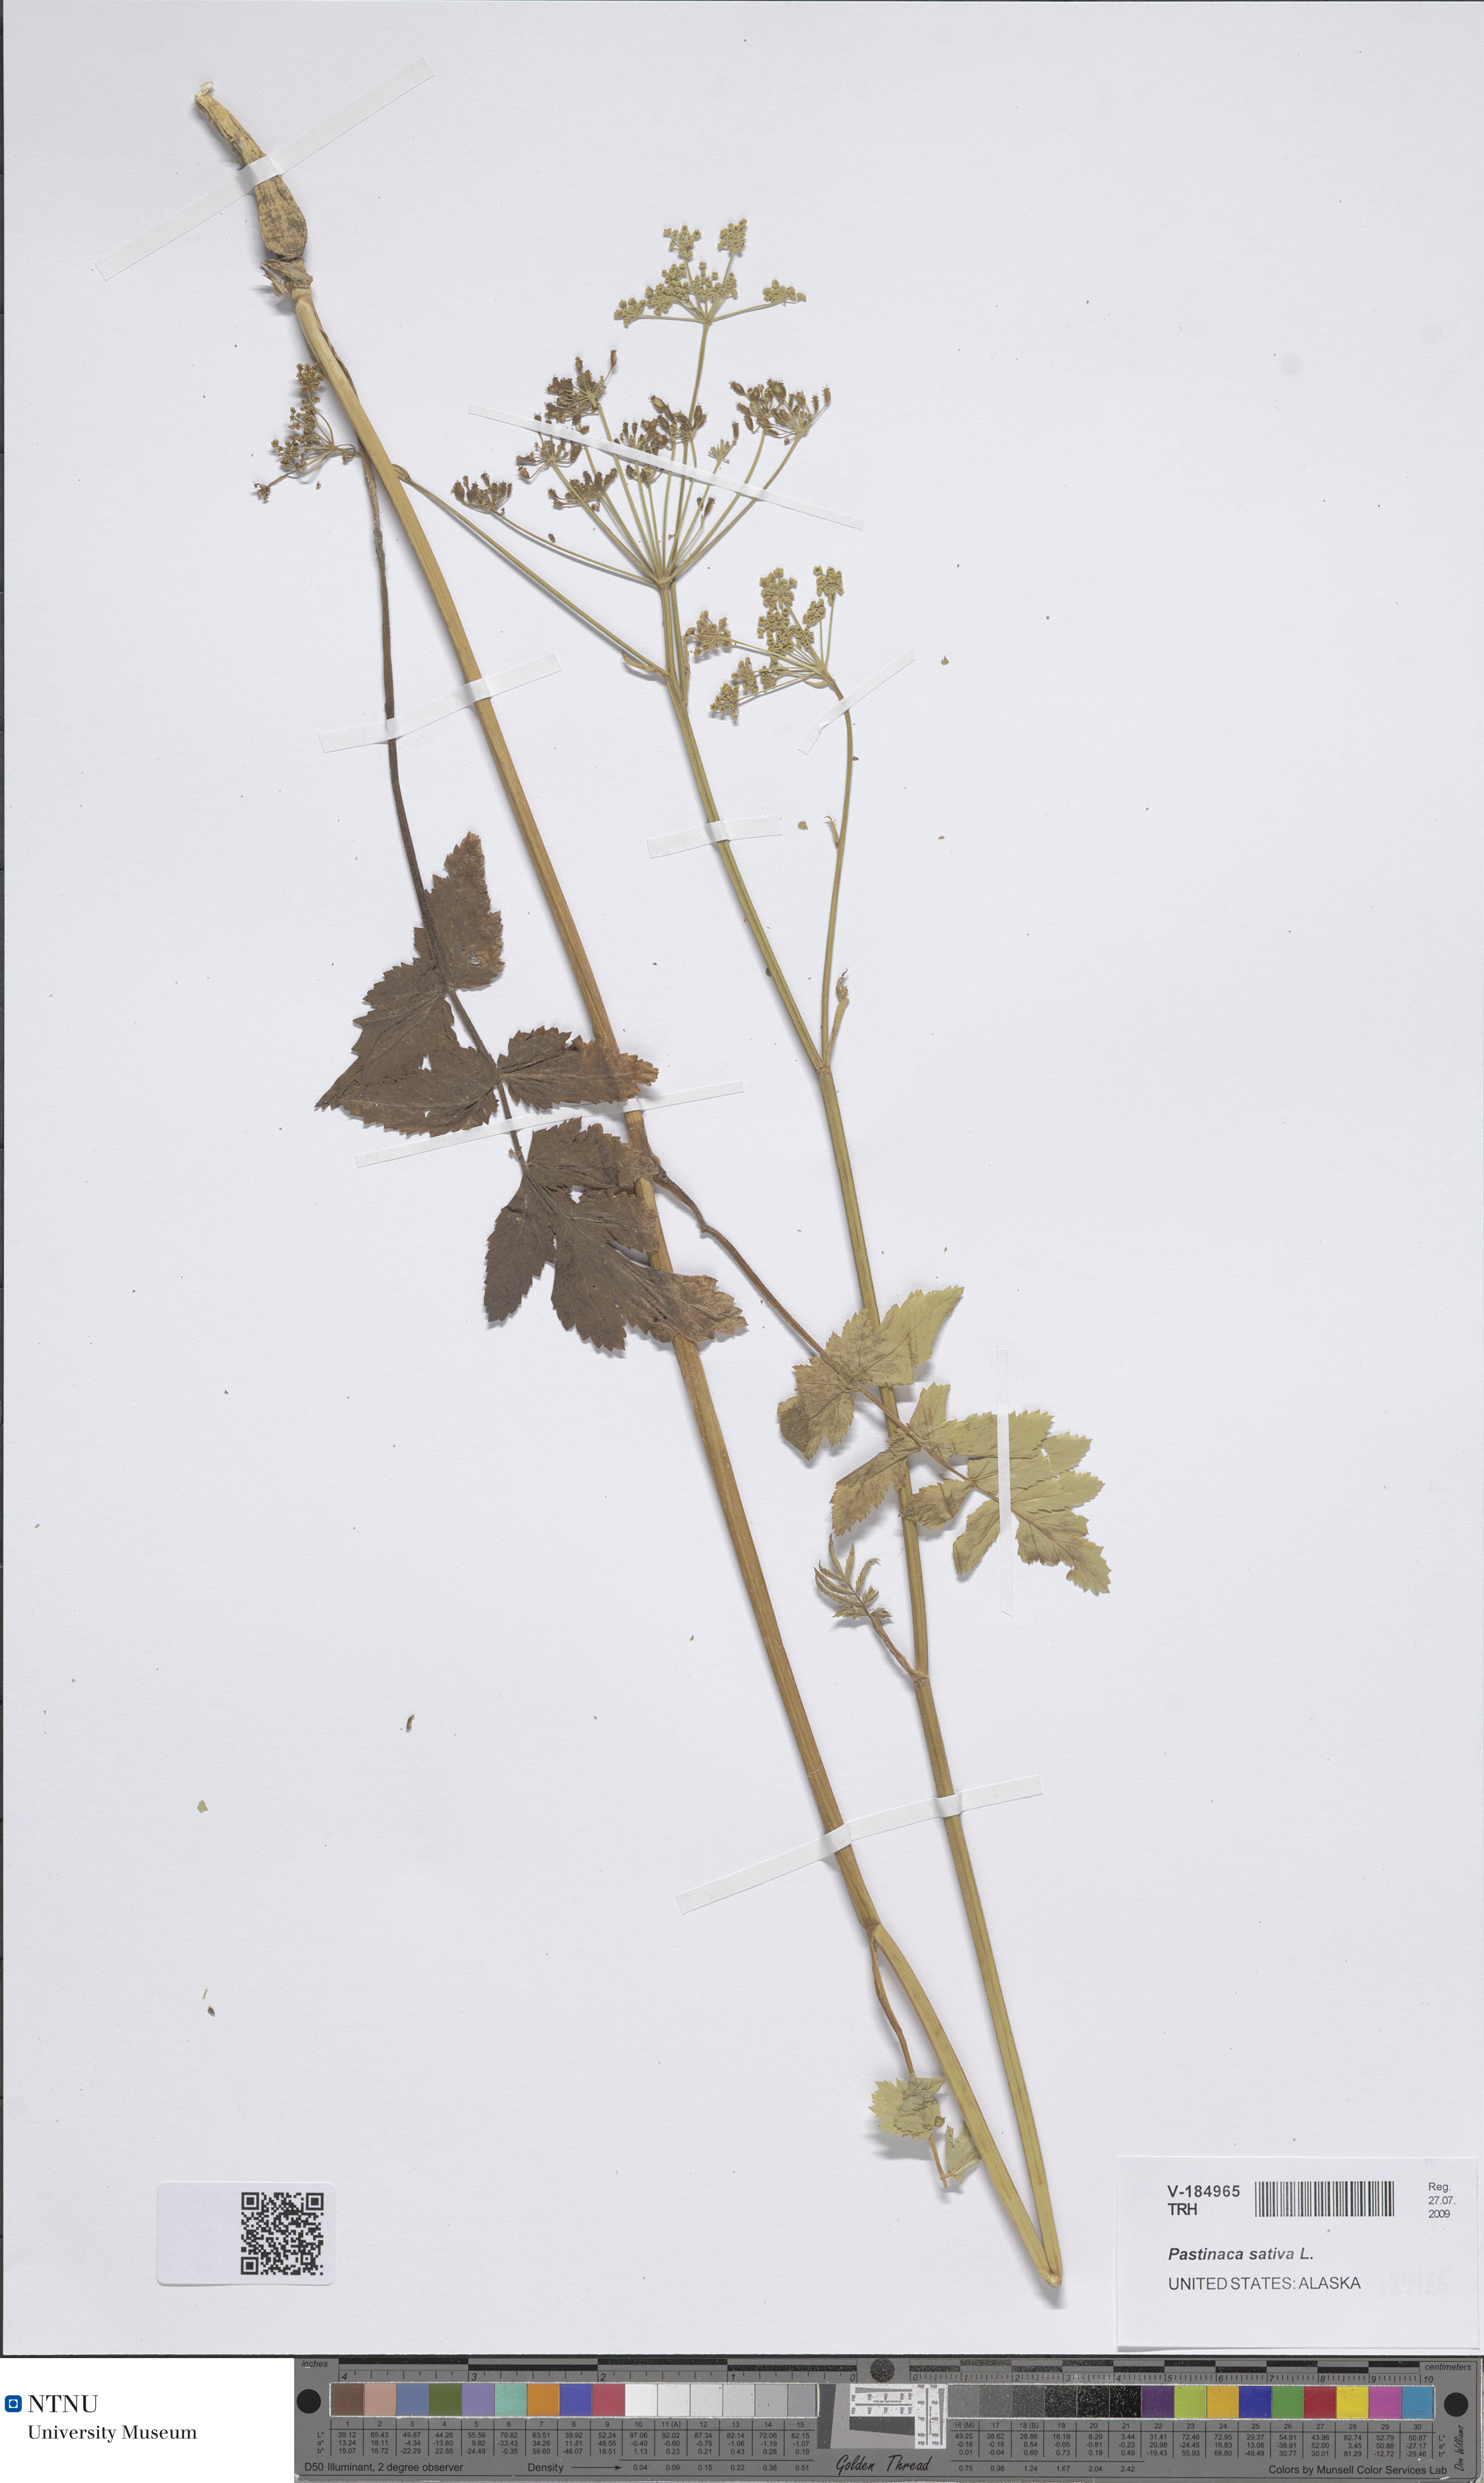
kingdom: Plantae
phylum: Tracheophyta
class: Magnoliopsida
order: Apiales
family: Apiaceae
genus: Pastinaca
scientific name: Pastinaca sativa
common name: Wild parsnip
